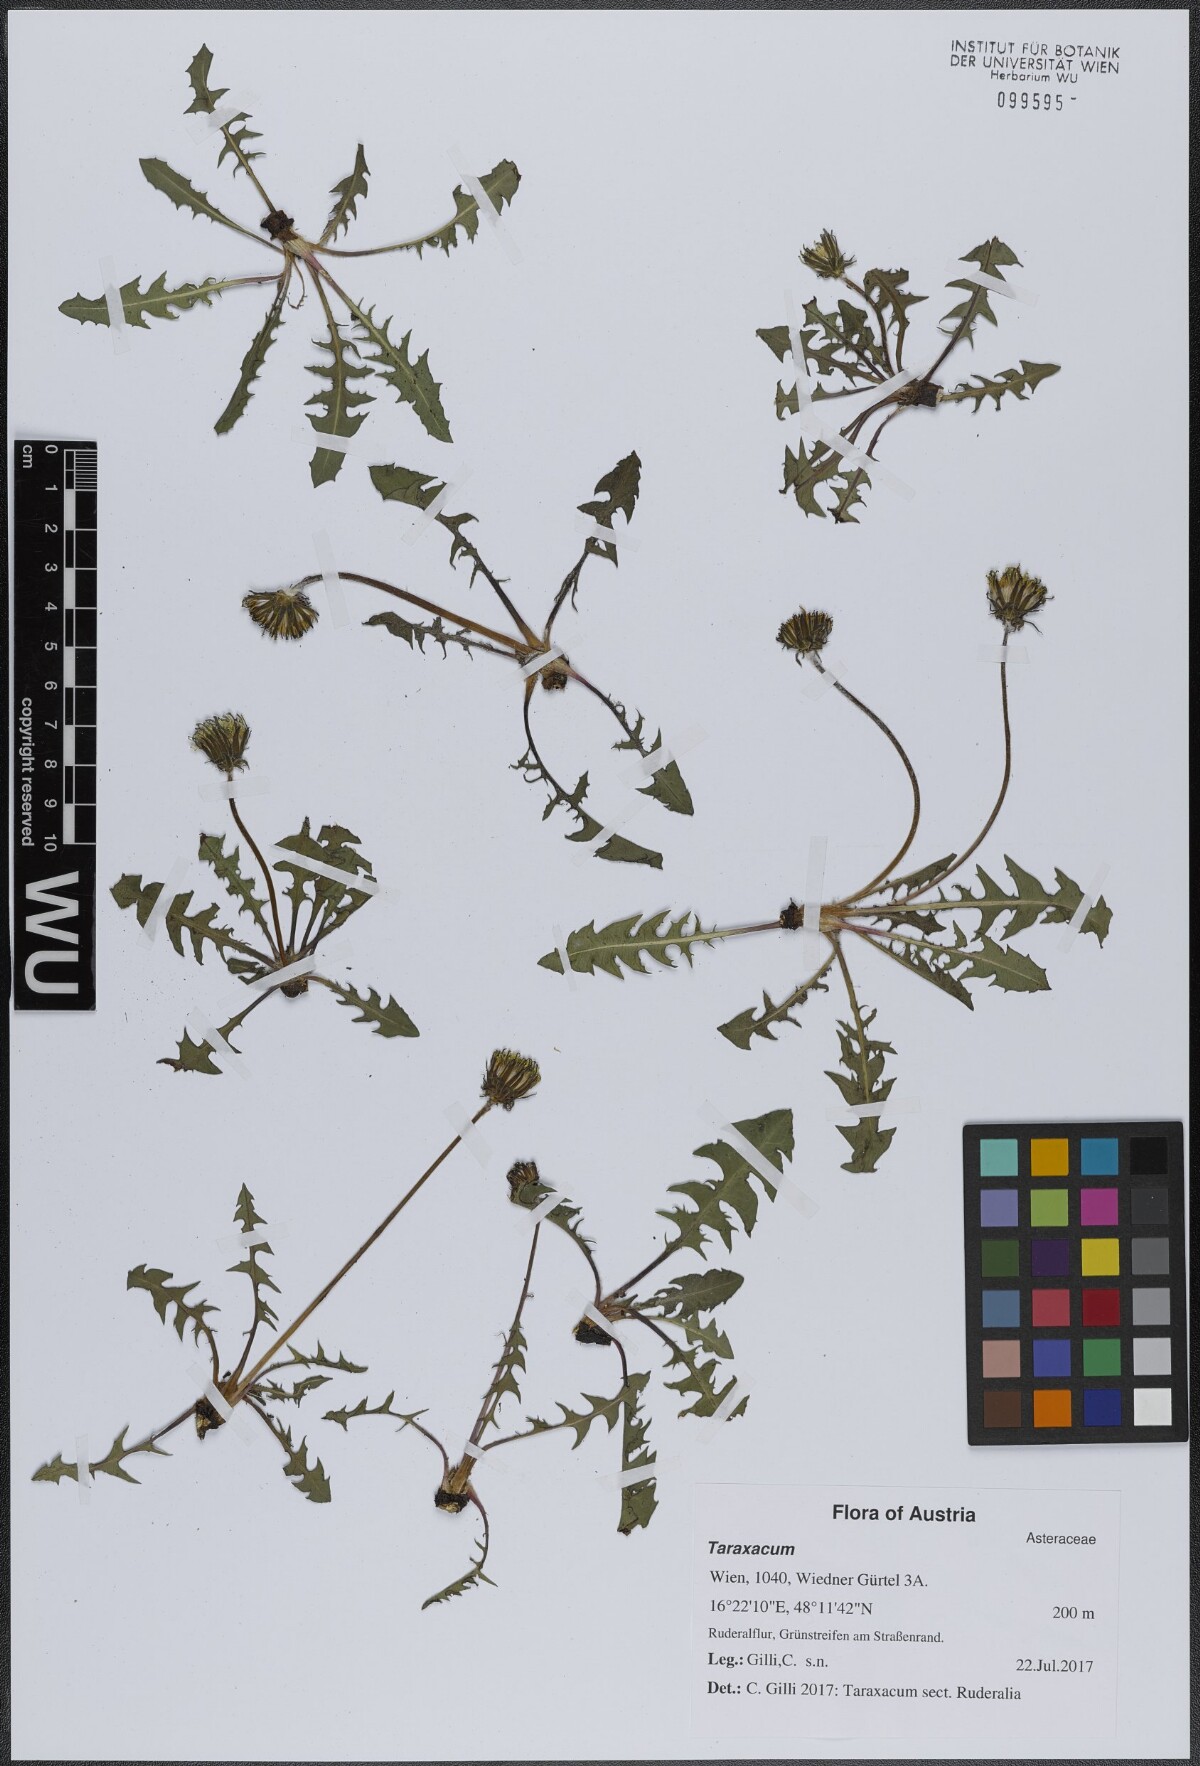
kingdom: Plantae
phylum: Tracheophyta
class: Magnoliopsida
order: Asterales
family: Asteraceae
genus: Taraxacum
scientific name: Taraxacum
